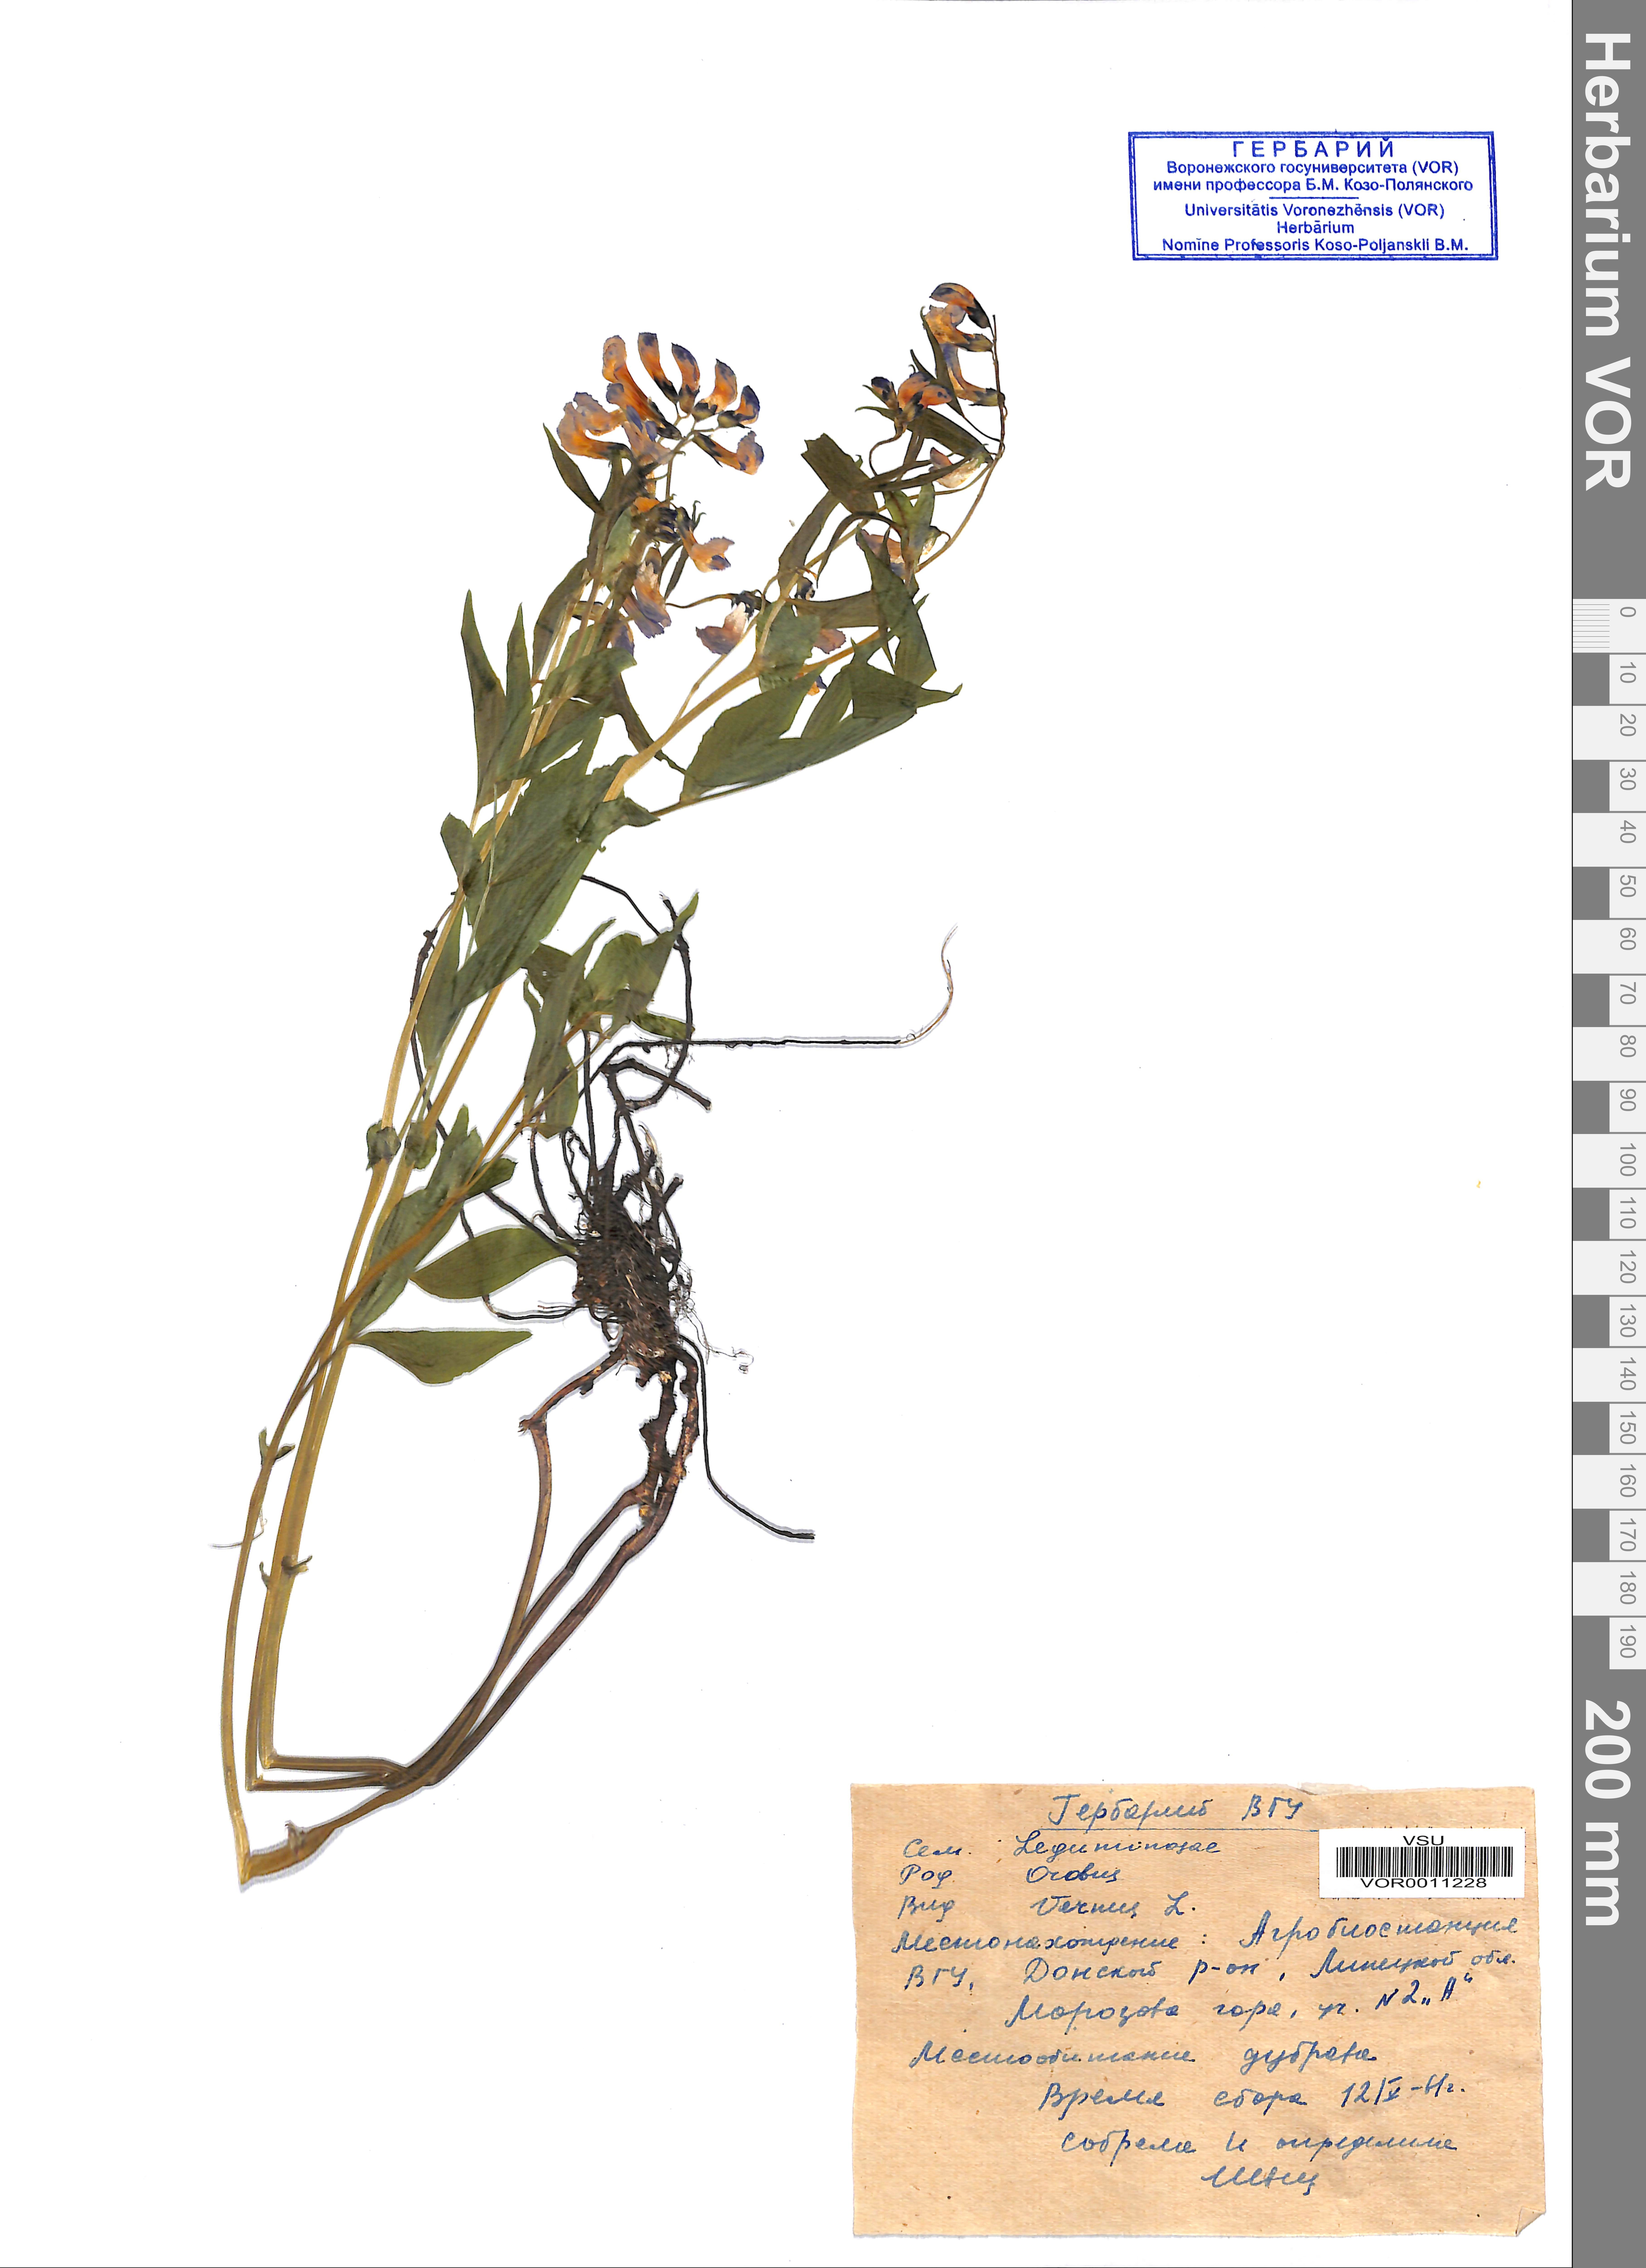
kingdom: Plantae
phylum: Tracheophyta
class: Magnoliopsida
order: Fabales
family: Fabaceae
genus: Lathyrus
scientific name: Lathyrus vernus
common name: Spring pea
